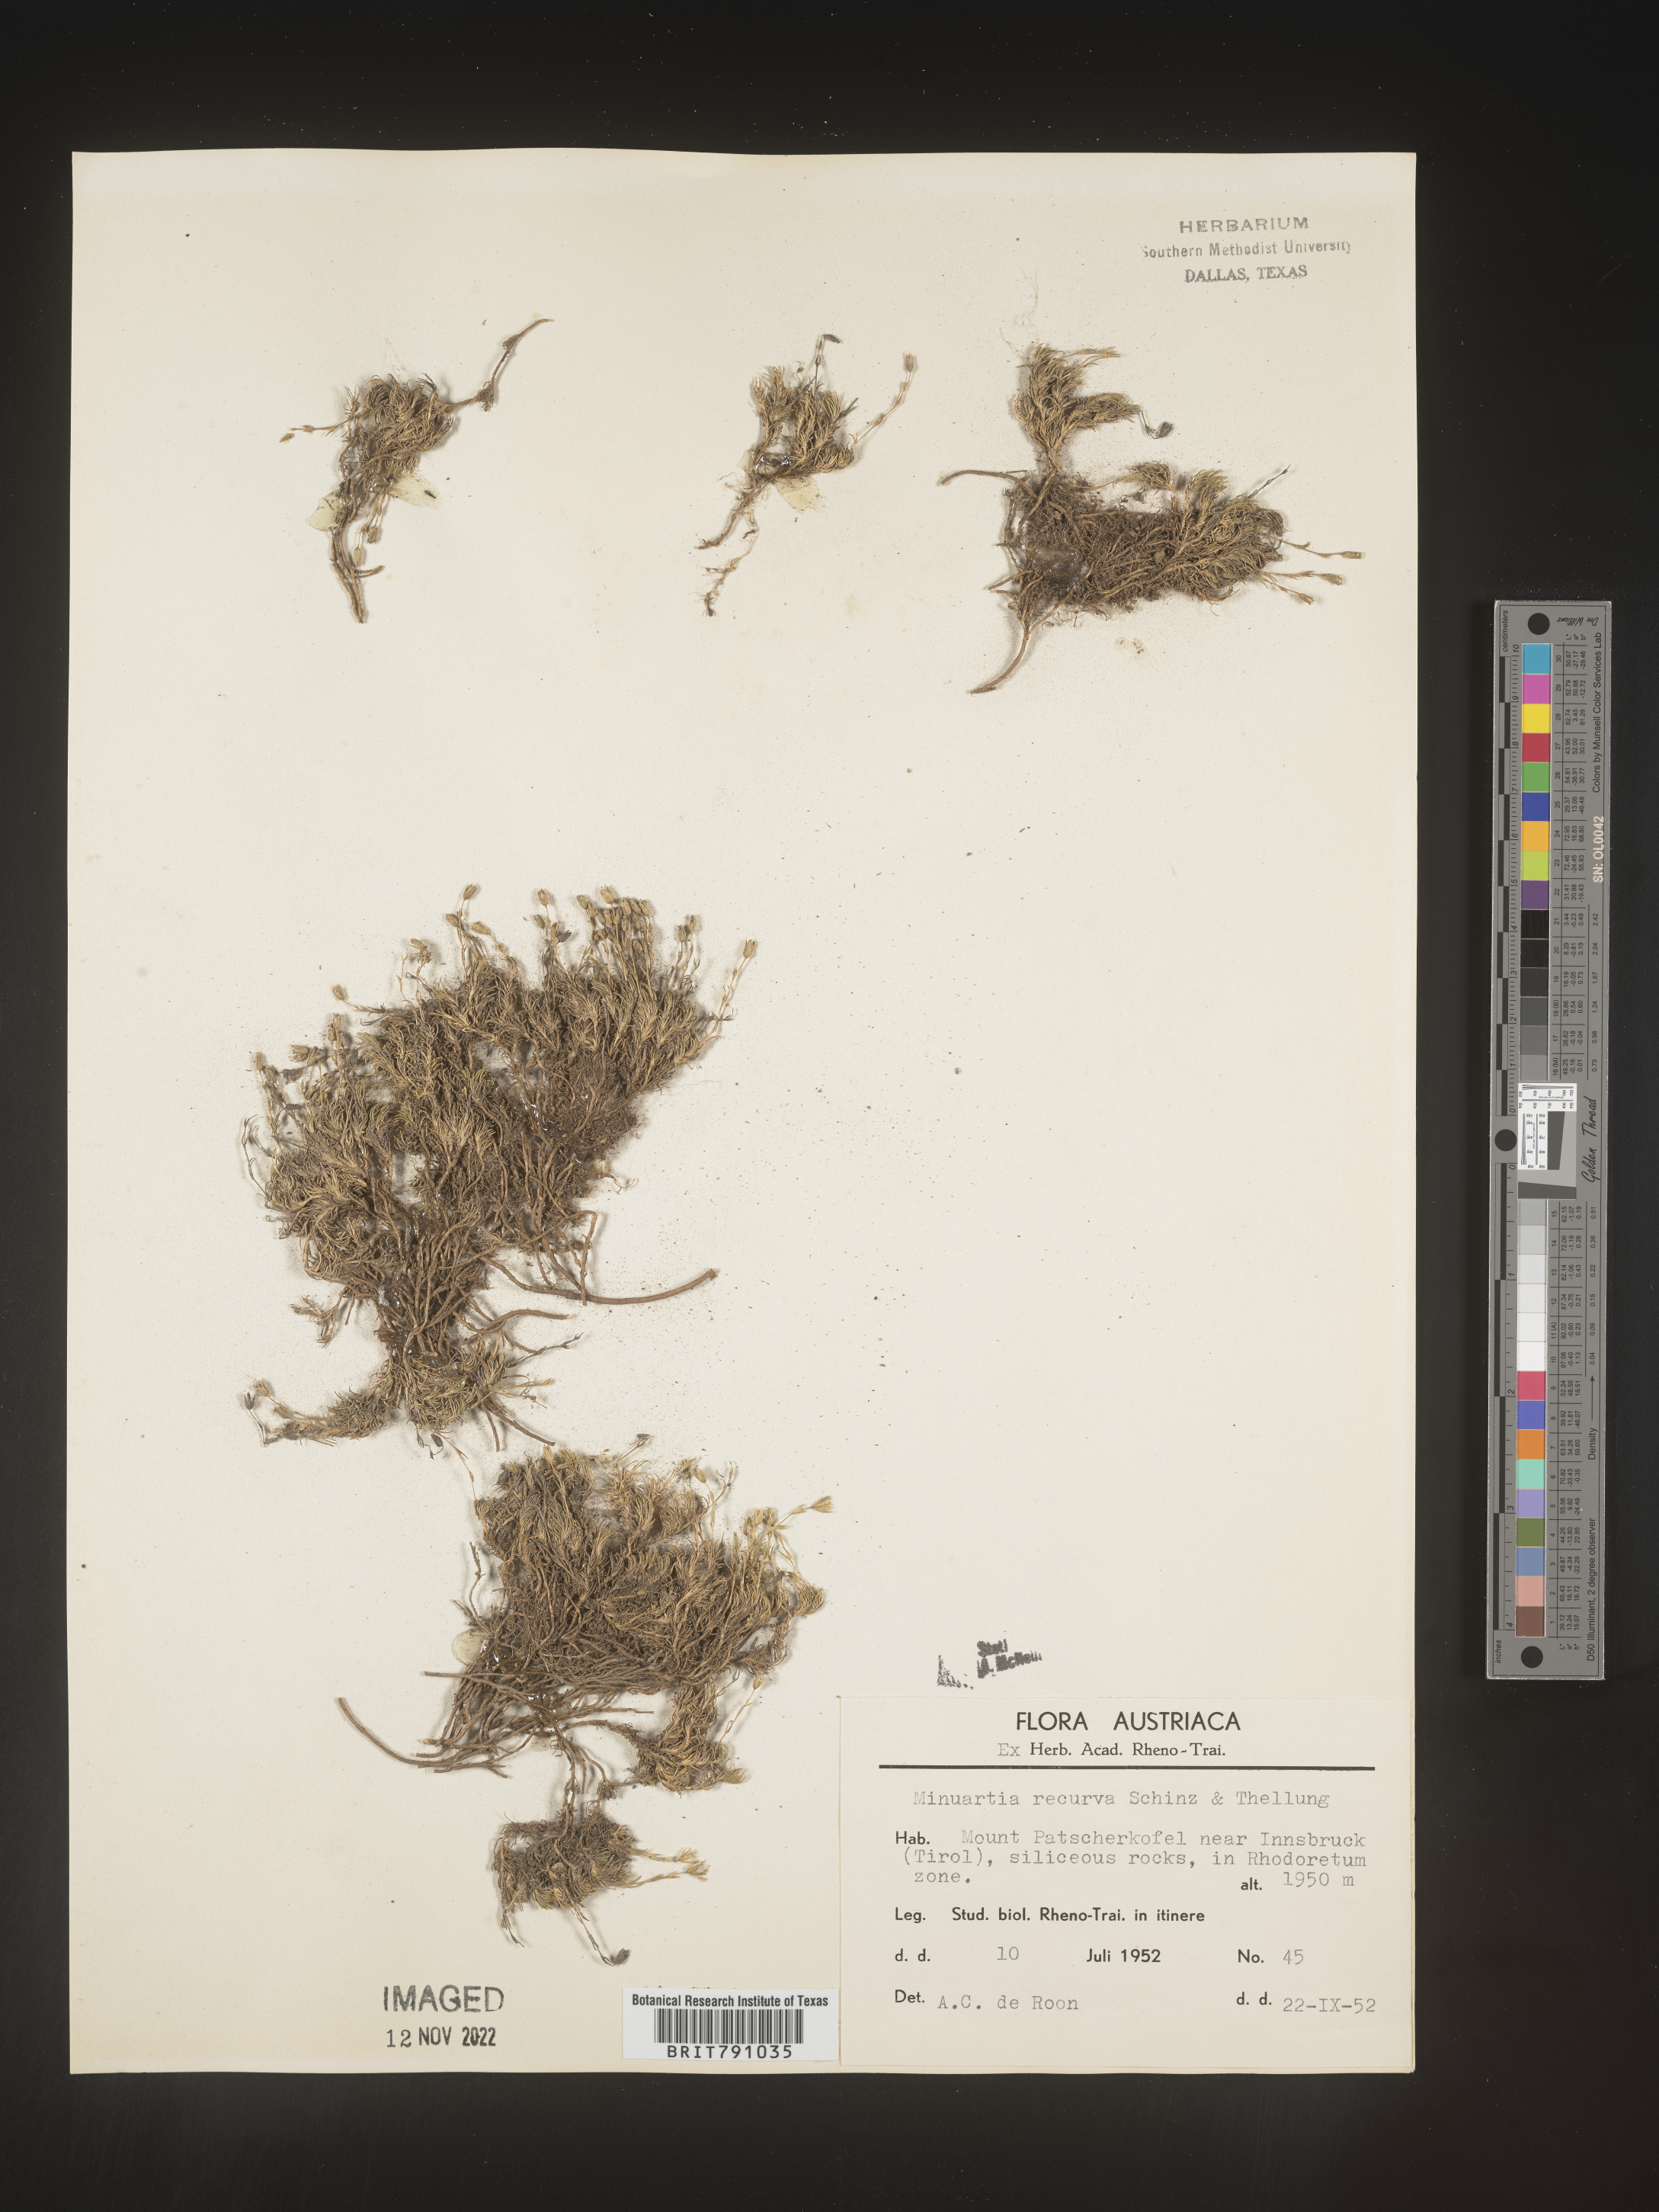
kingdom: Plantae
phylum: Tracheophyta
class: Magnoliopsida
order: Caryophyllales
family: Caryophyllaceae
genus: Minuartia
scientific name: Minuartia
